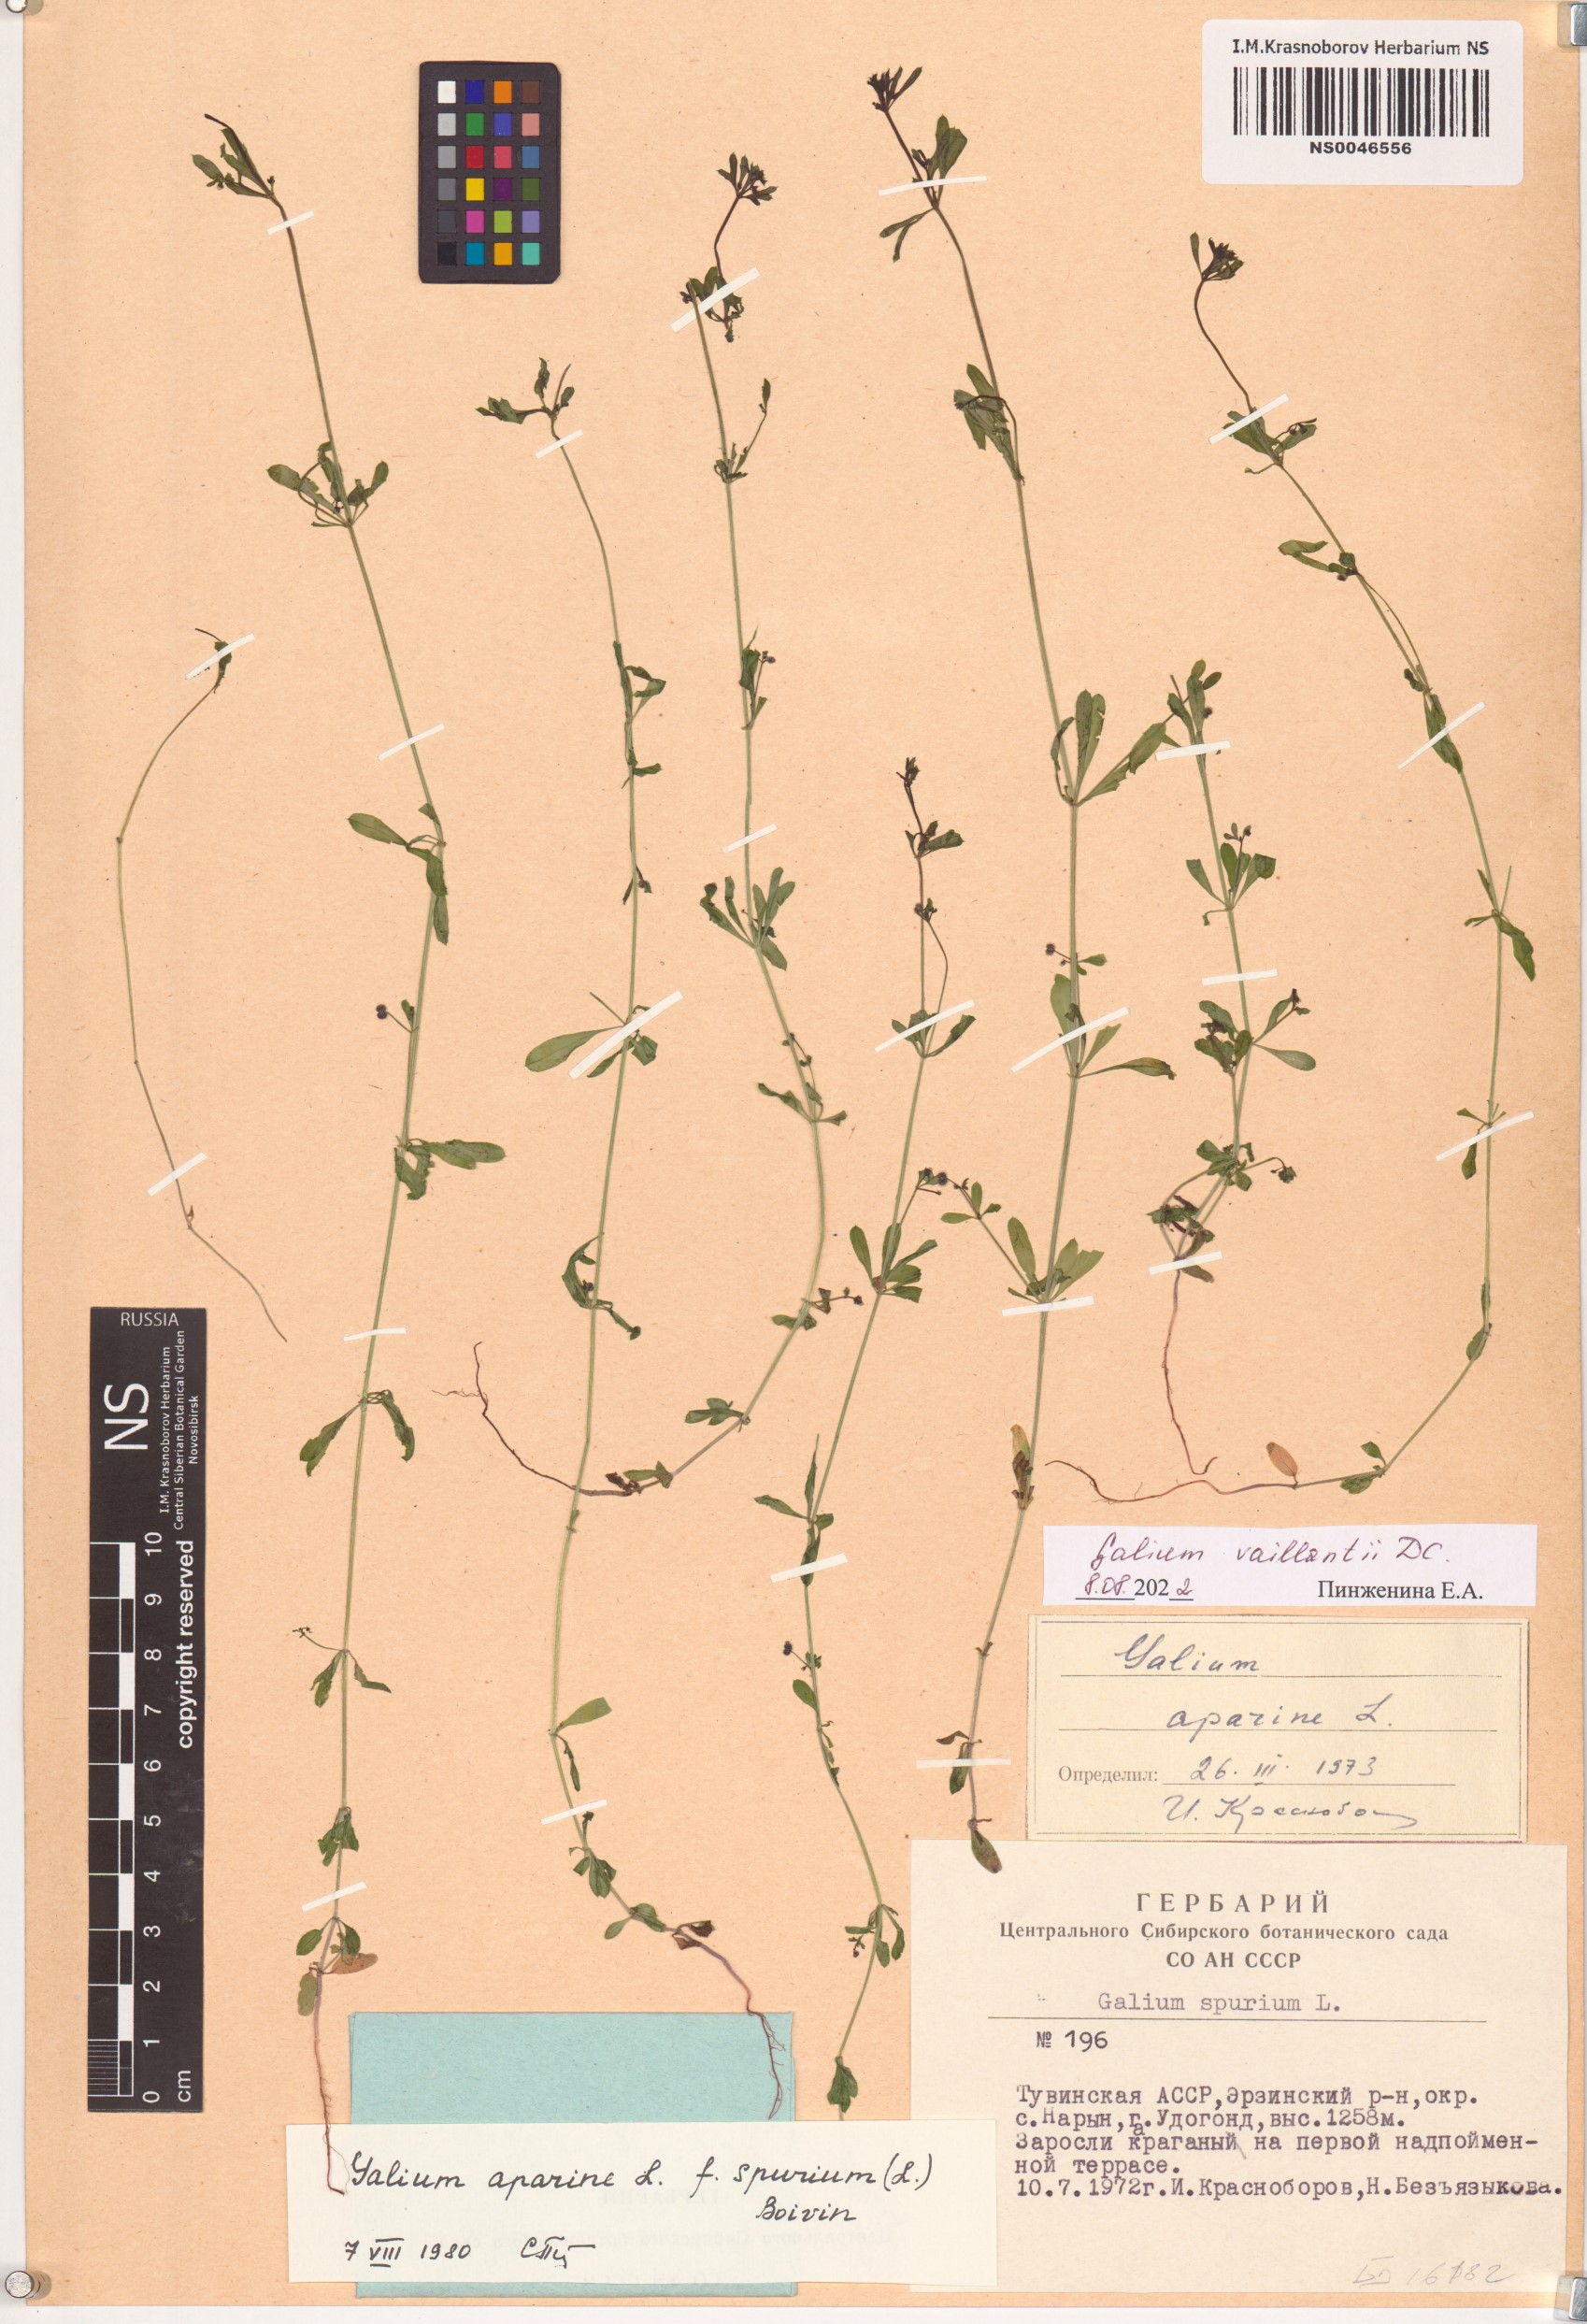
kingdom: Plantae
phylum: Tracheophyta
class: Magnoliopsida
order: Gentianales
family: Rubiaceae
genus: Galium
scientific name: Galium spurium
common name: False cleavers
